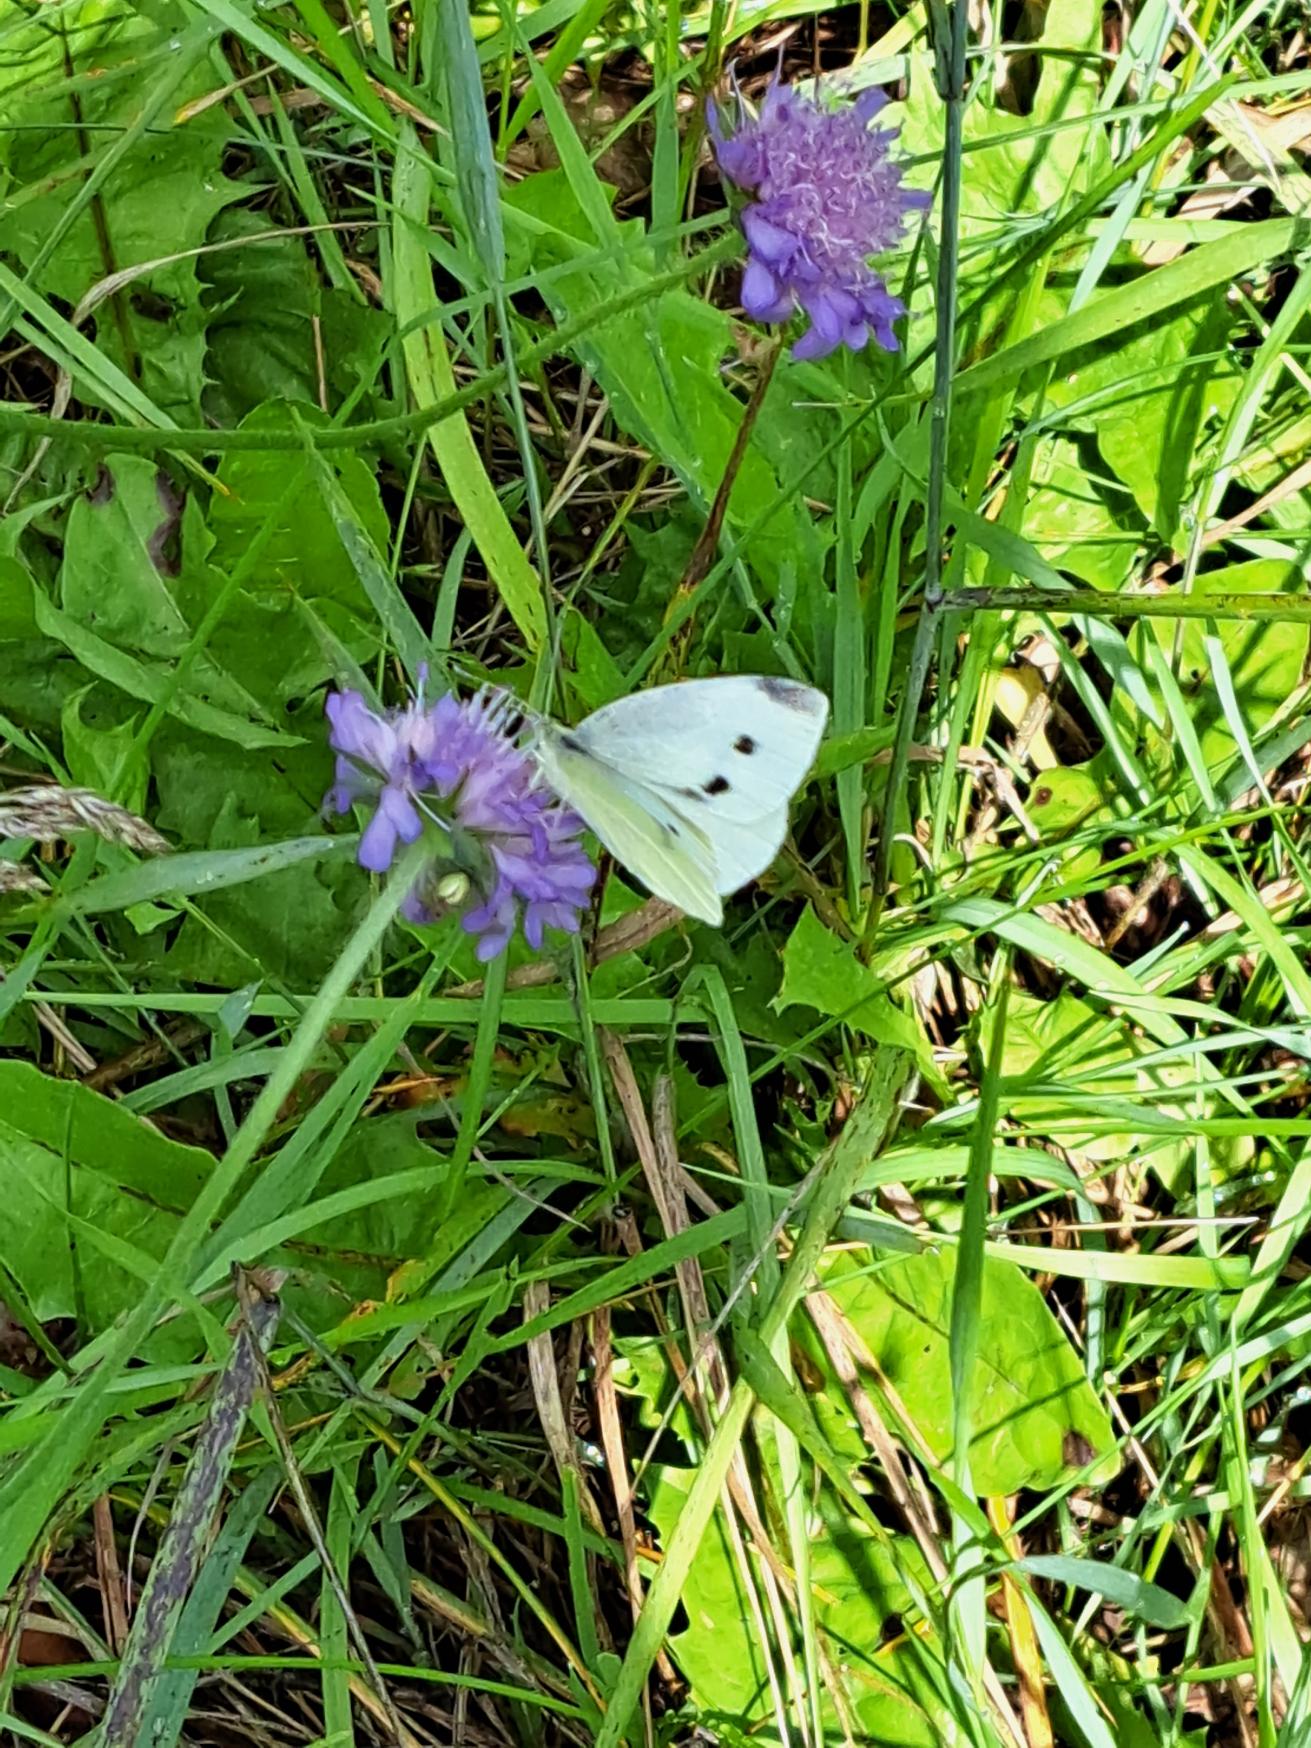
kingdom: Animalia
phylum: Arthropoda
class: Insecta
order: Lepidoptera
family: Pieridae
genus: Pieris
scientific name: Pieris rapae
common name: Lille kålsommerfugl
